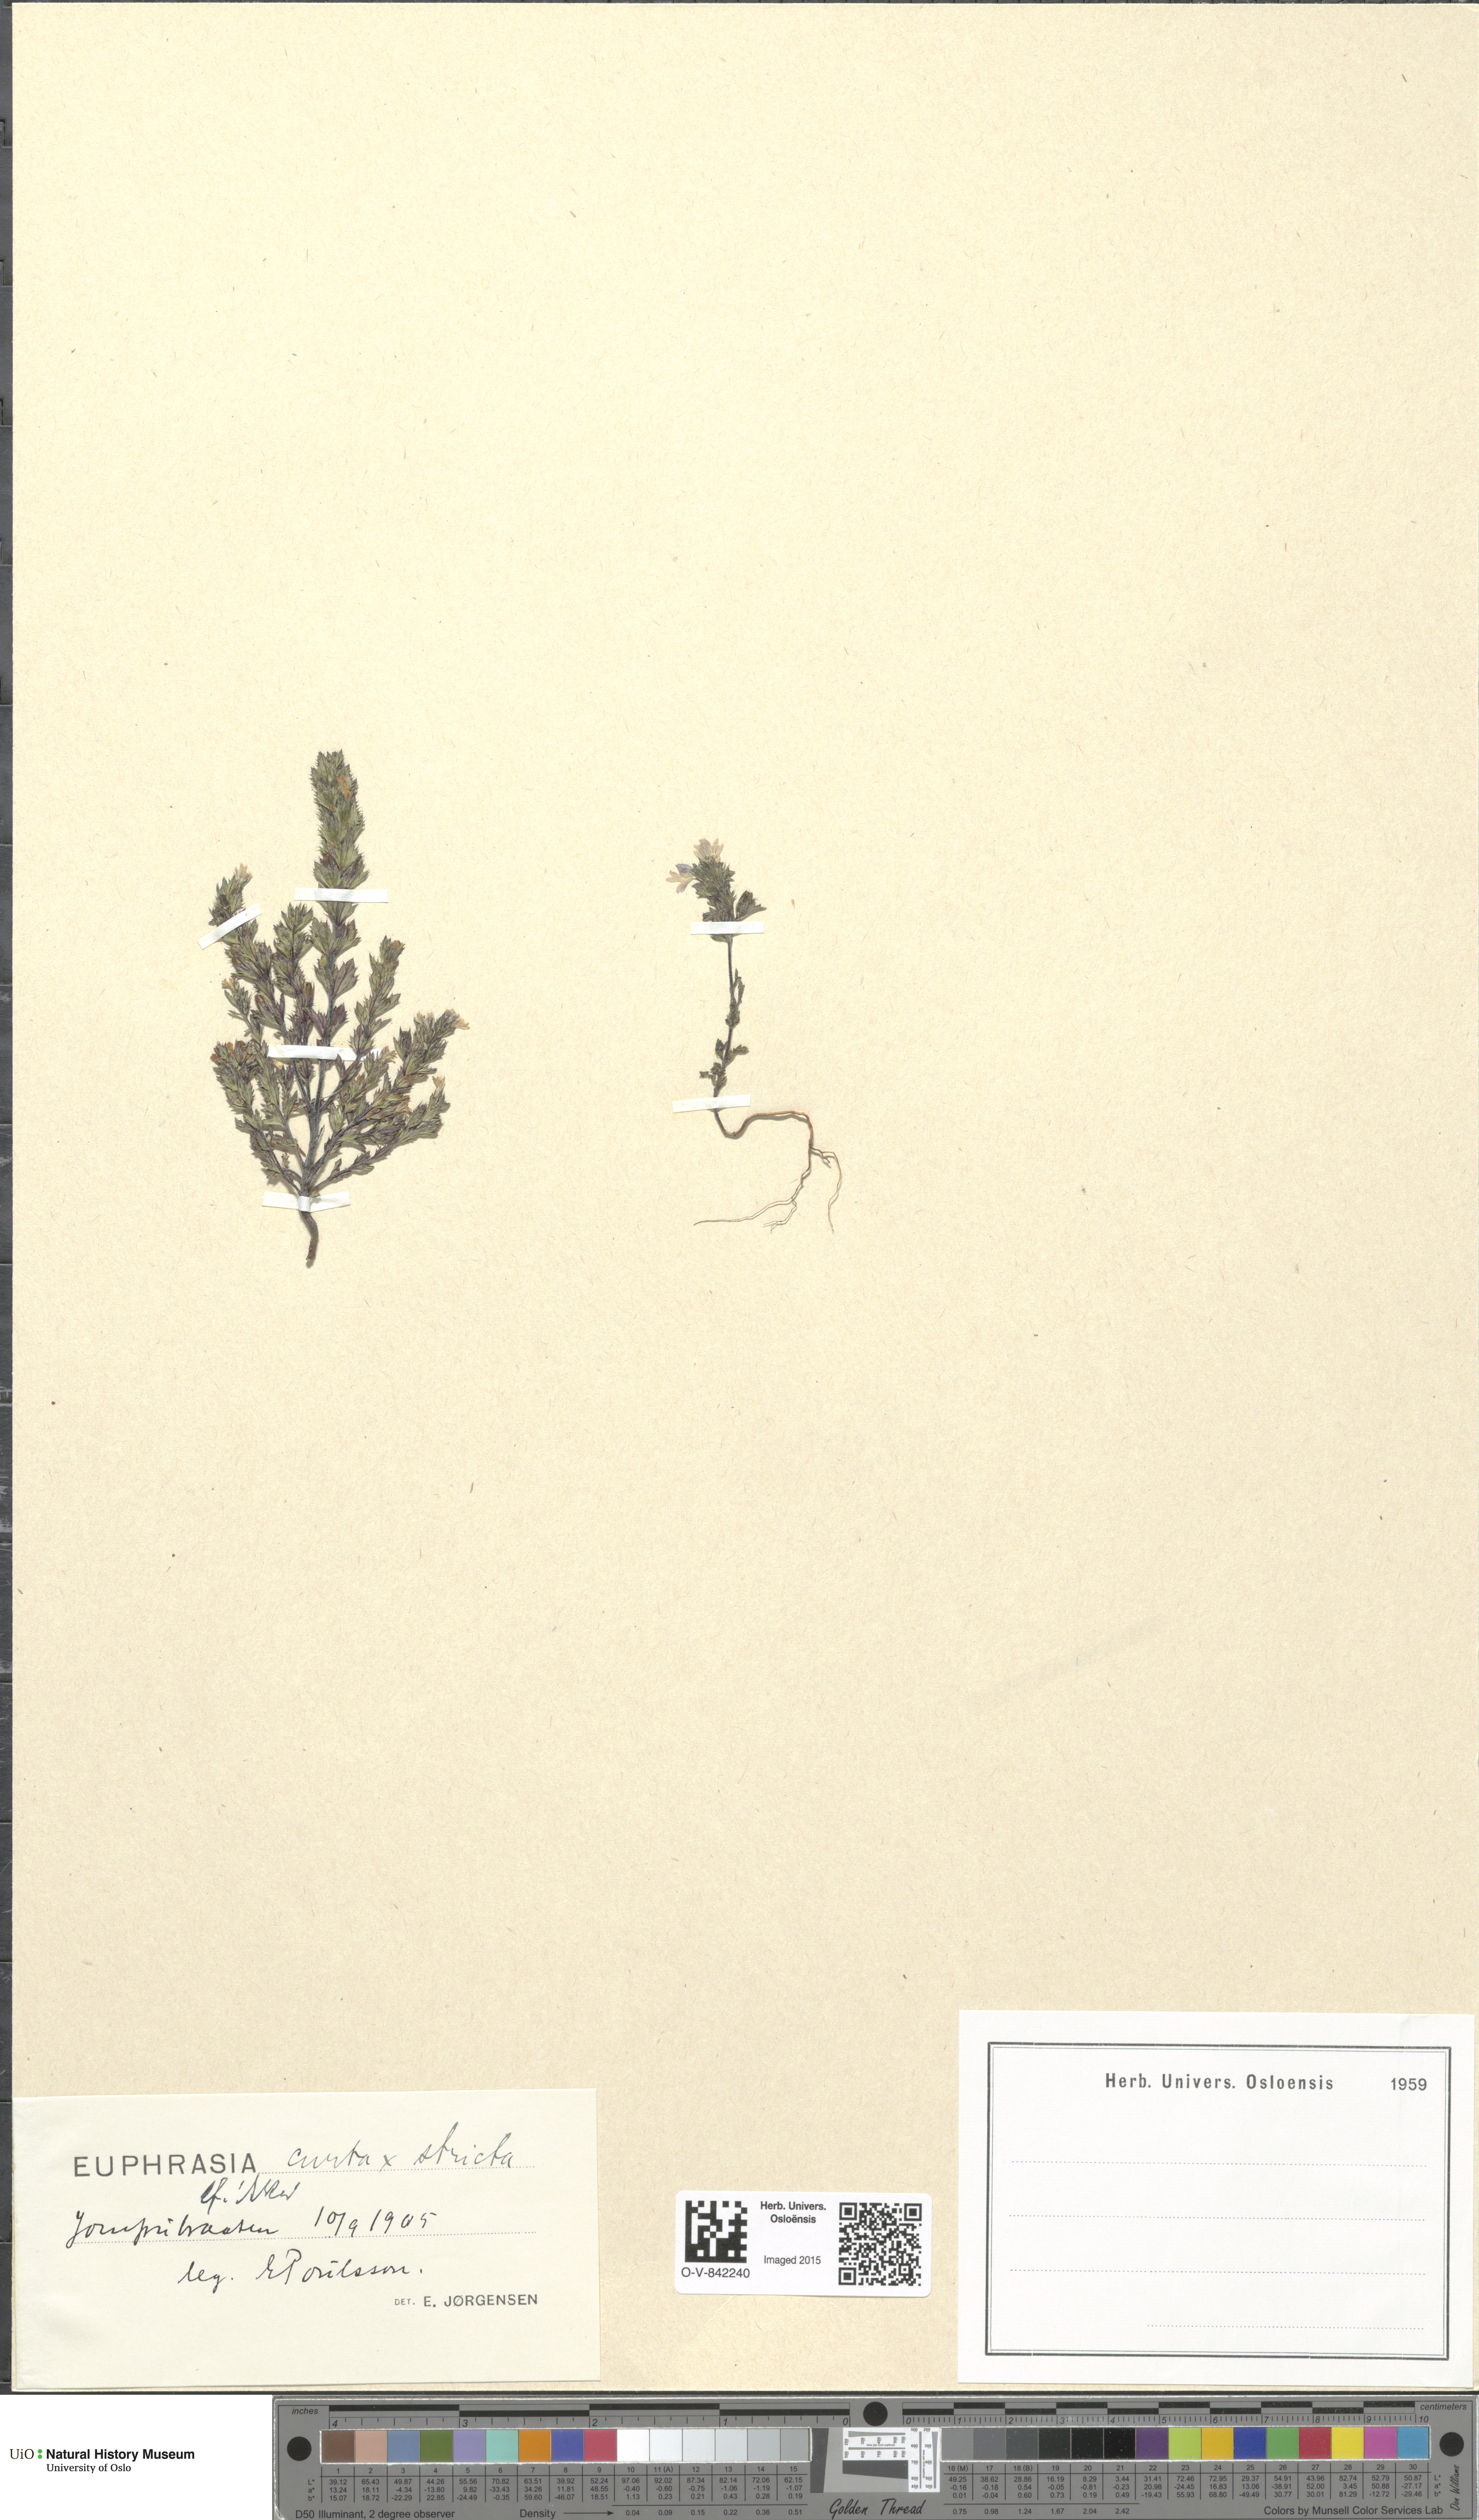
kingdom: Plantae
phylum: Tracheophyta
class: Magnoliopsida
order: Lamiales
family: Orobanchaceae
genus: Euphrasia
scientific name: Euphrasia
